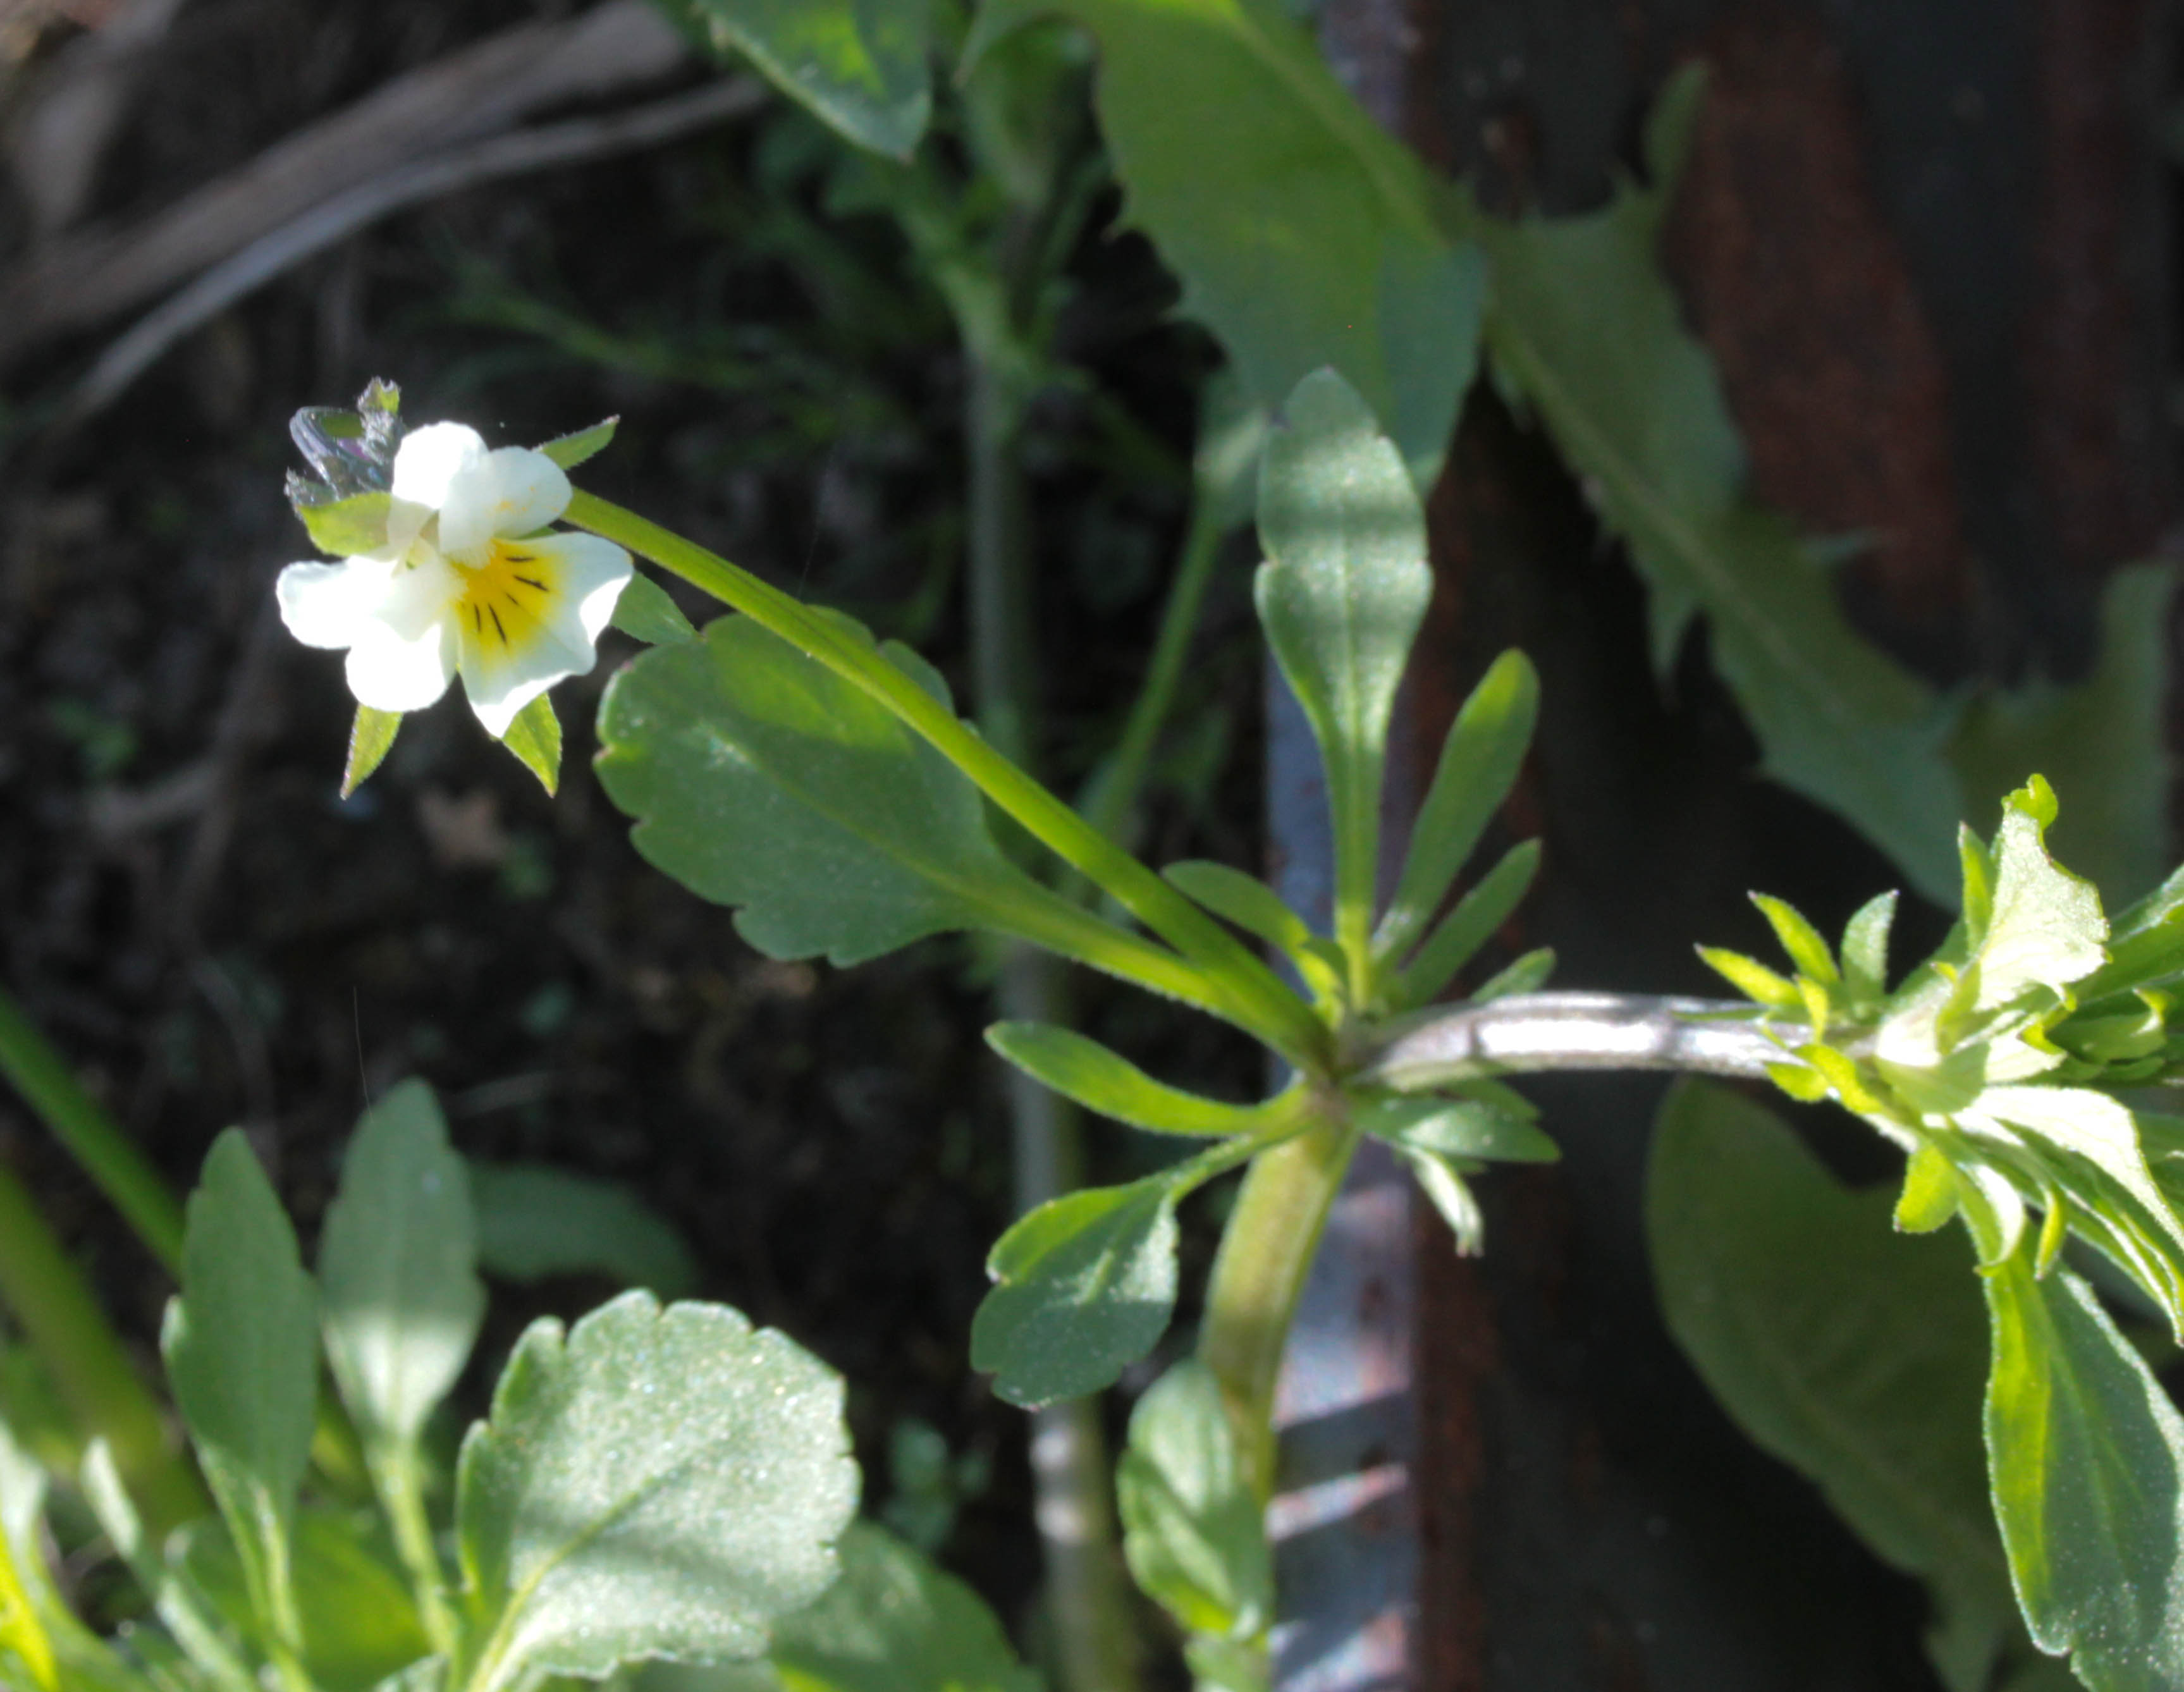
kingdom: Plantae
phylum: Tracheophyta
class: Magnoliopsida
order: Malpighiales
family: Violaceae
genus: Viola
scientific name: Viola
